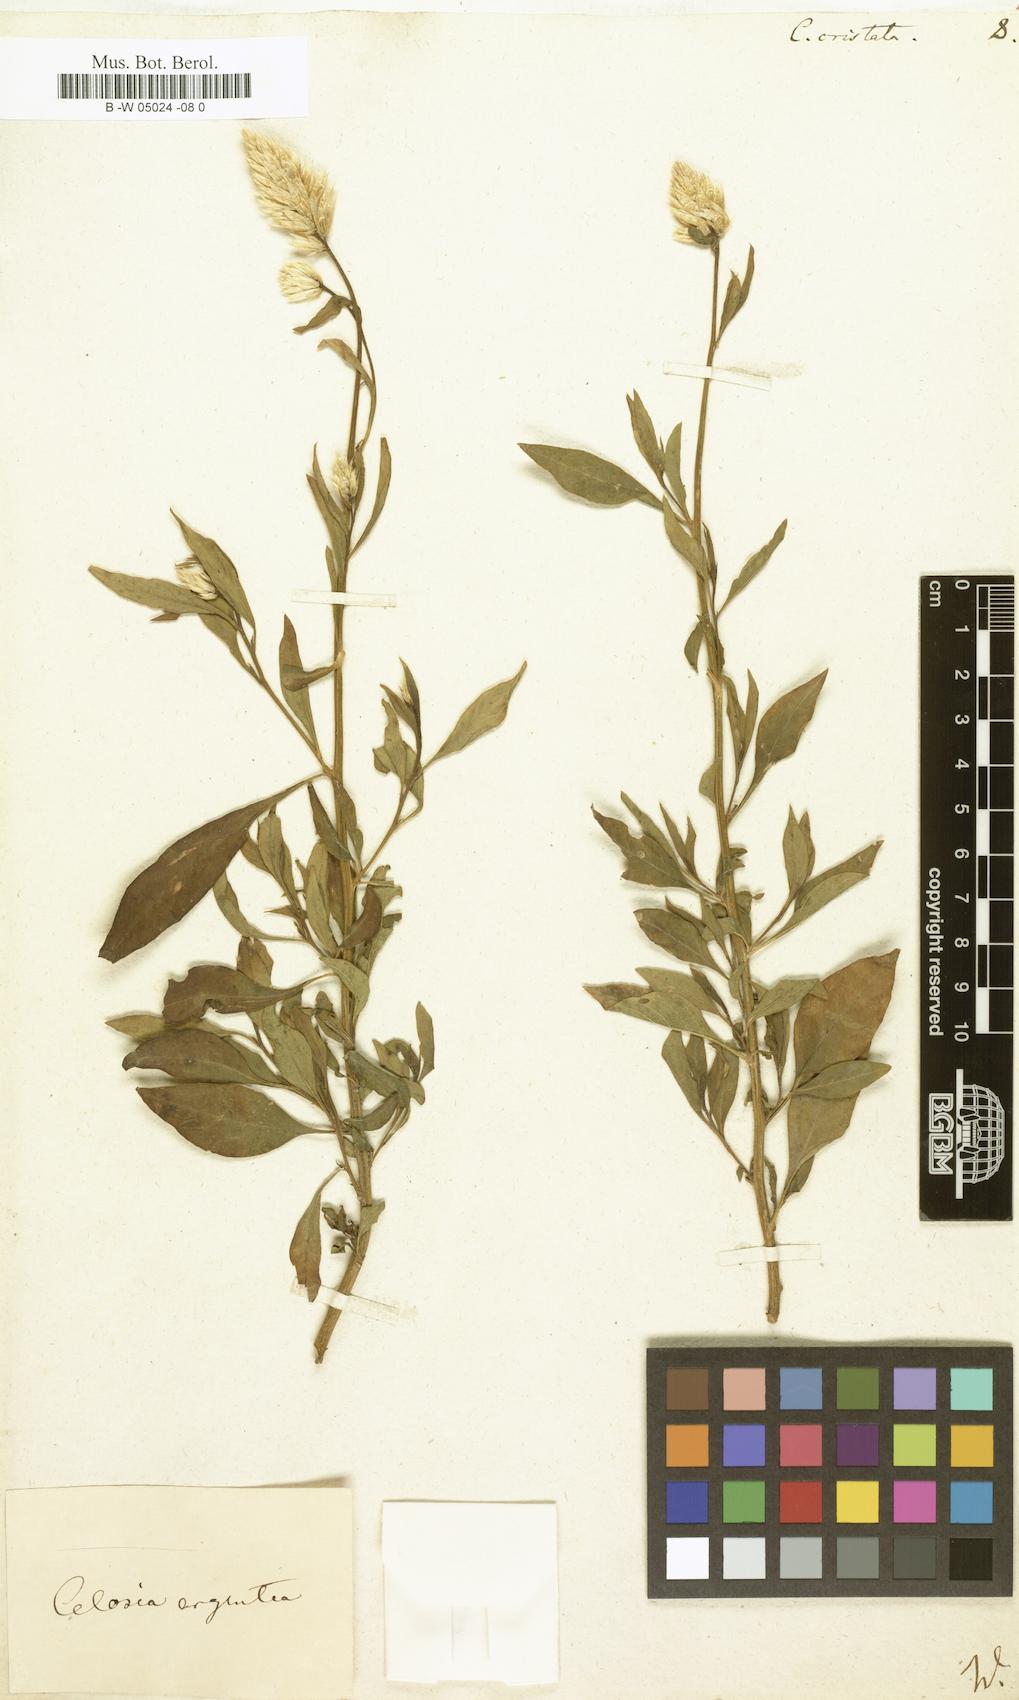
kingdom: Plantae
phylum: Tracheophyta
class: Magnoliopsida
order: Caryophyllales
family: Amaranthaceae
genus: Celosia
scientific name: Celosia argentea
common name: Feather cockscomb
